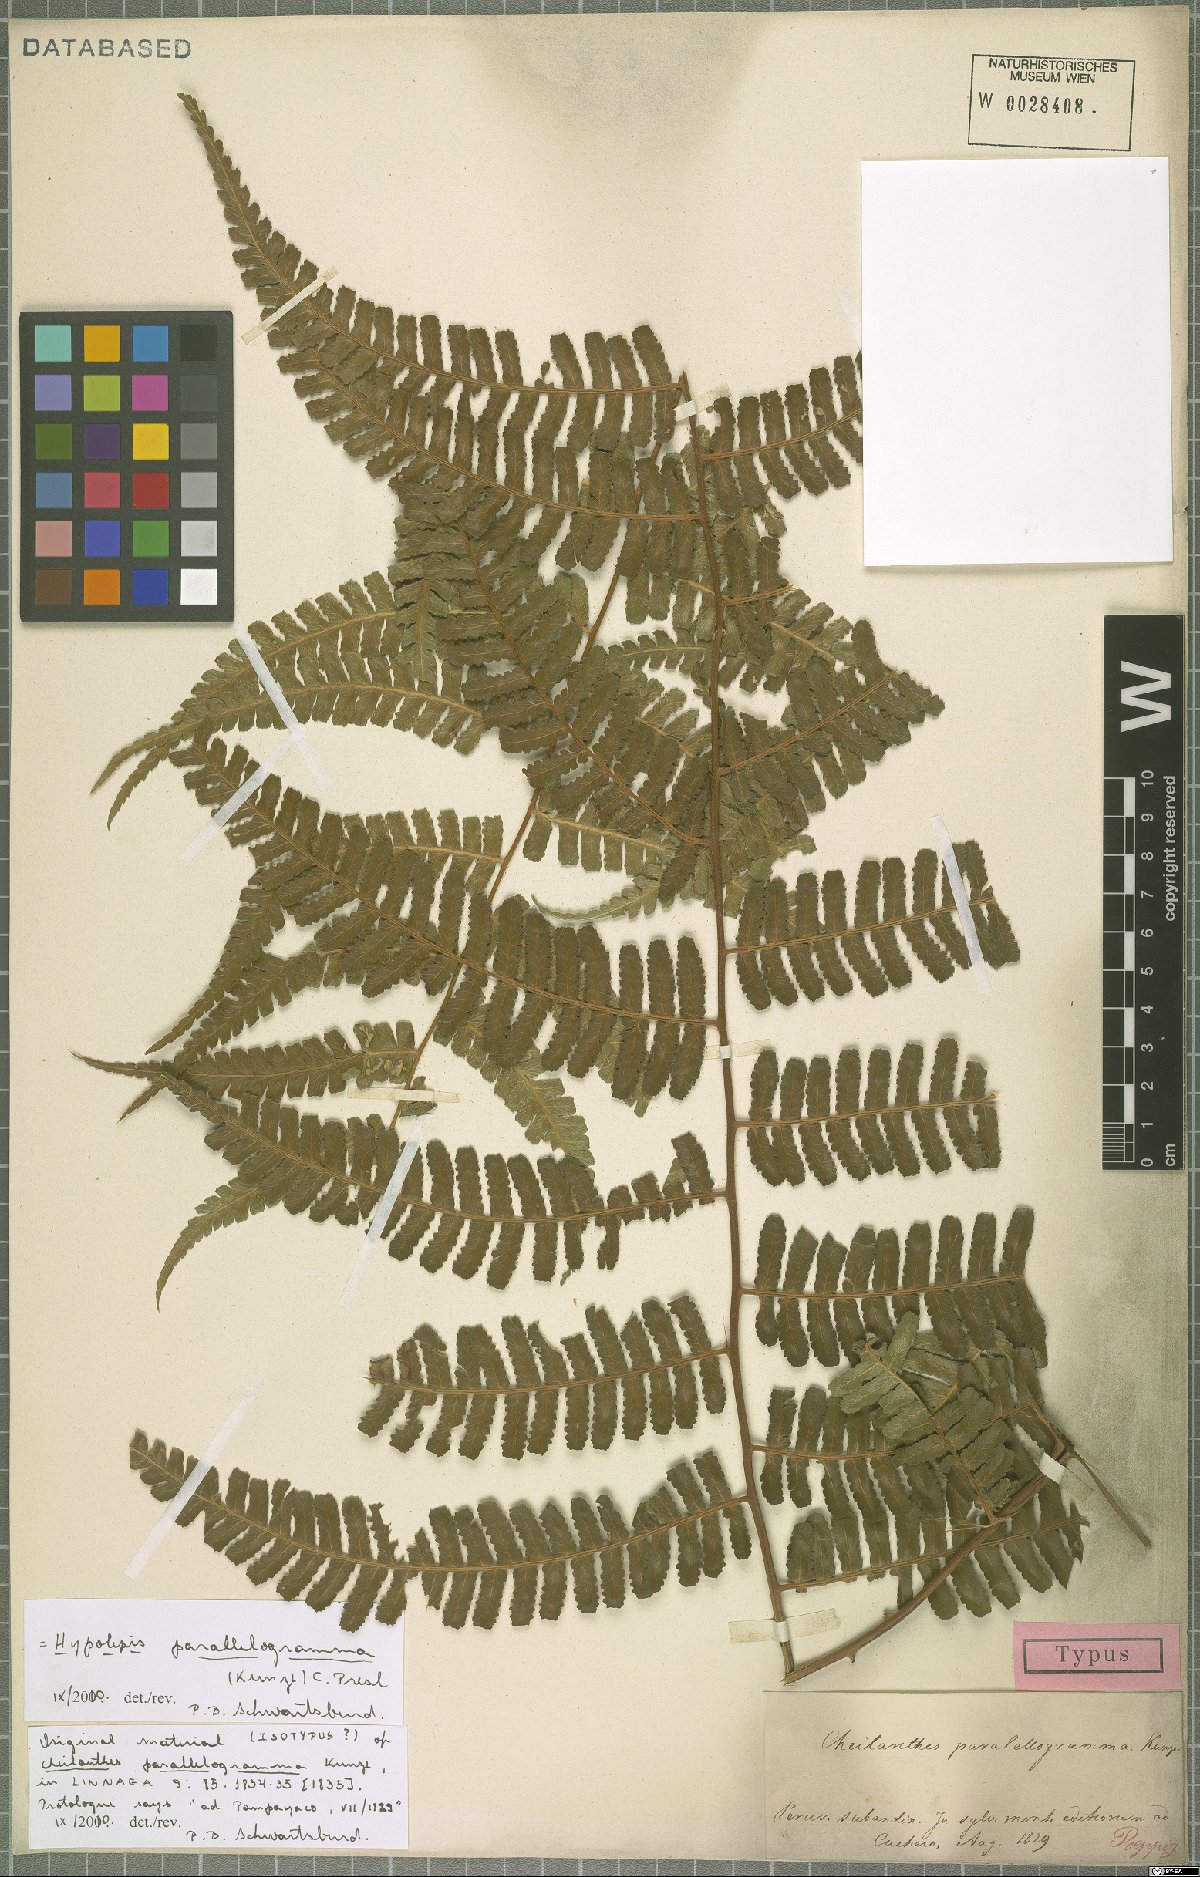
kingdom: Plantae
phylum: Tracheophyta
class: Polypodiopsida
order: Polypodiales
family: Dennstaedtiaceae
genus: Hypolepis
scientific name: Hypolepis parallelogramma
